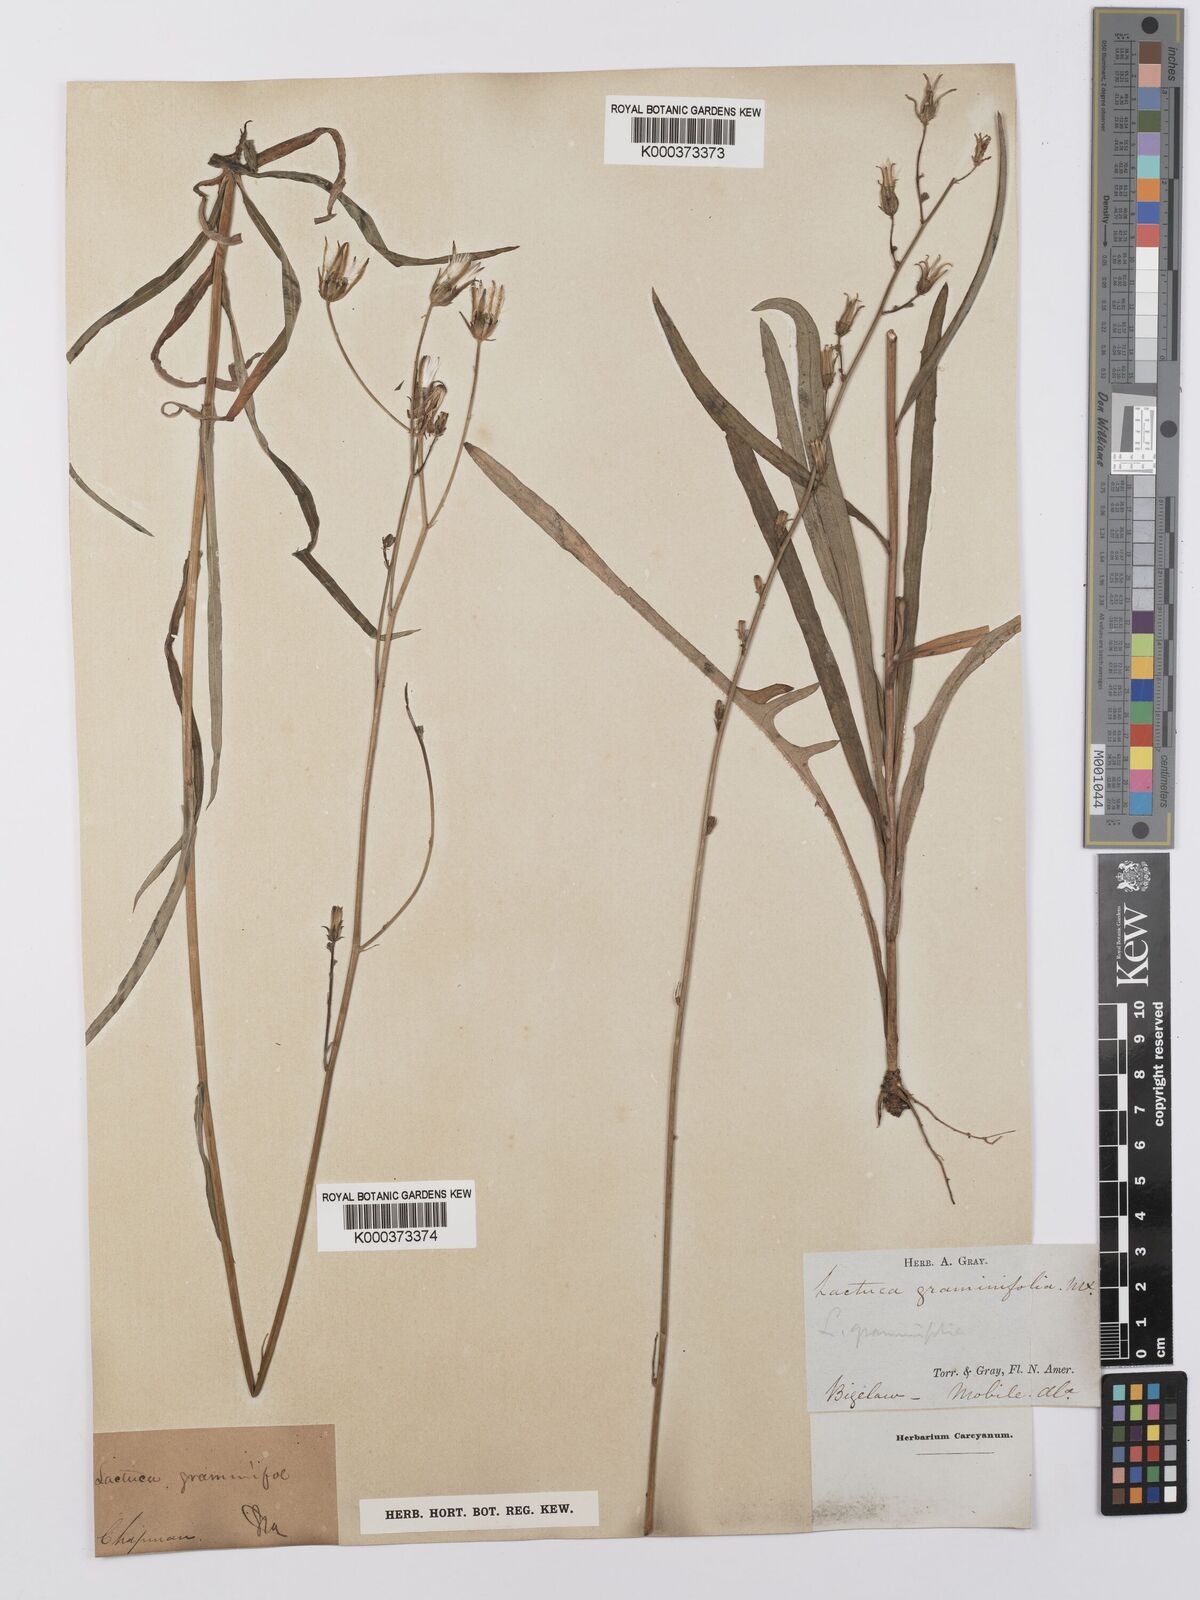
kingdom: Plantae
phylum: Tracheophyta
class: Magnoliopsida
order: Asterales
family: Asteraceae
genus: Lactuca
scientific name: Lactuca graminifolia
